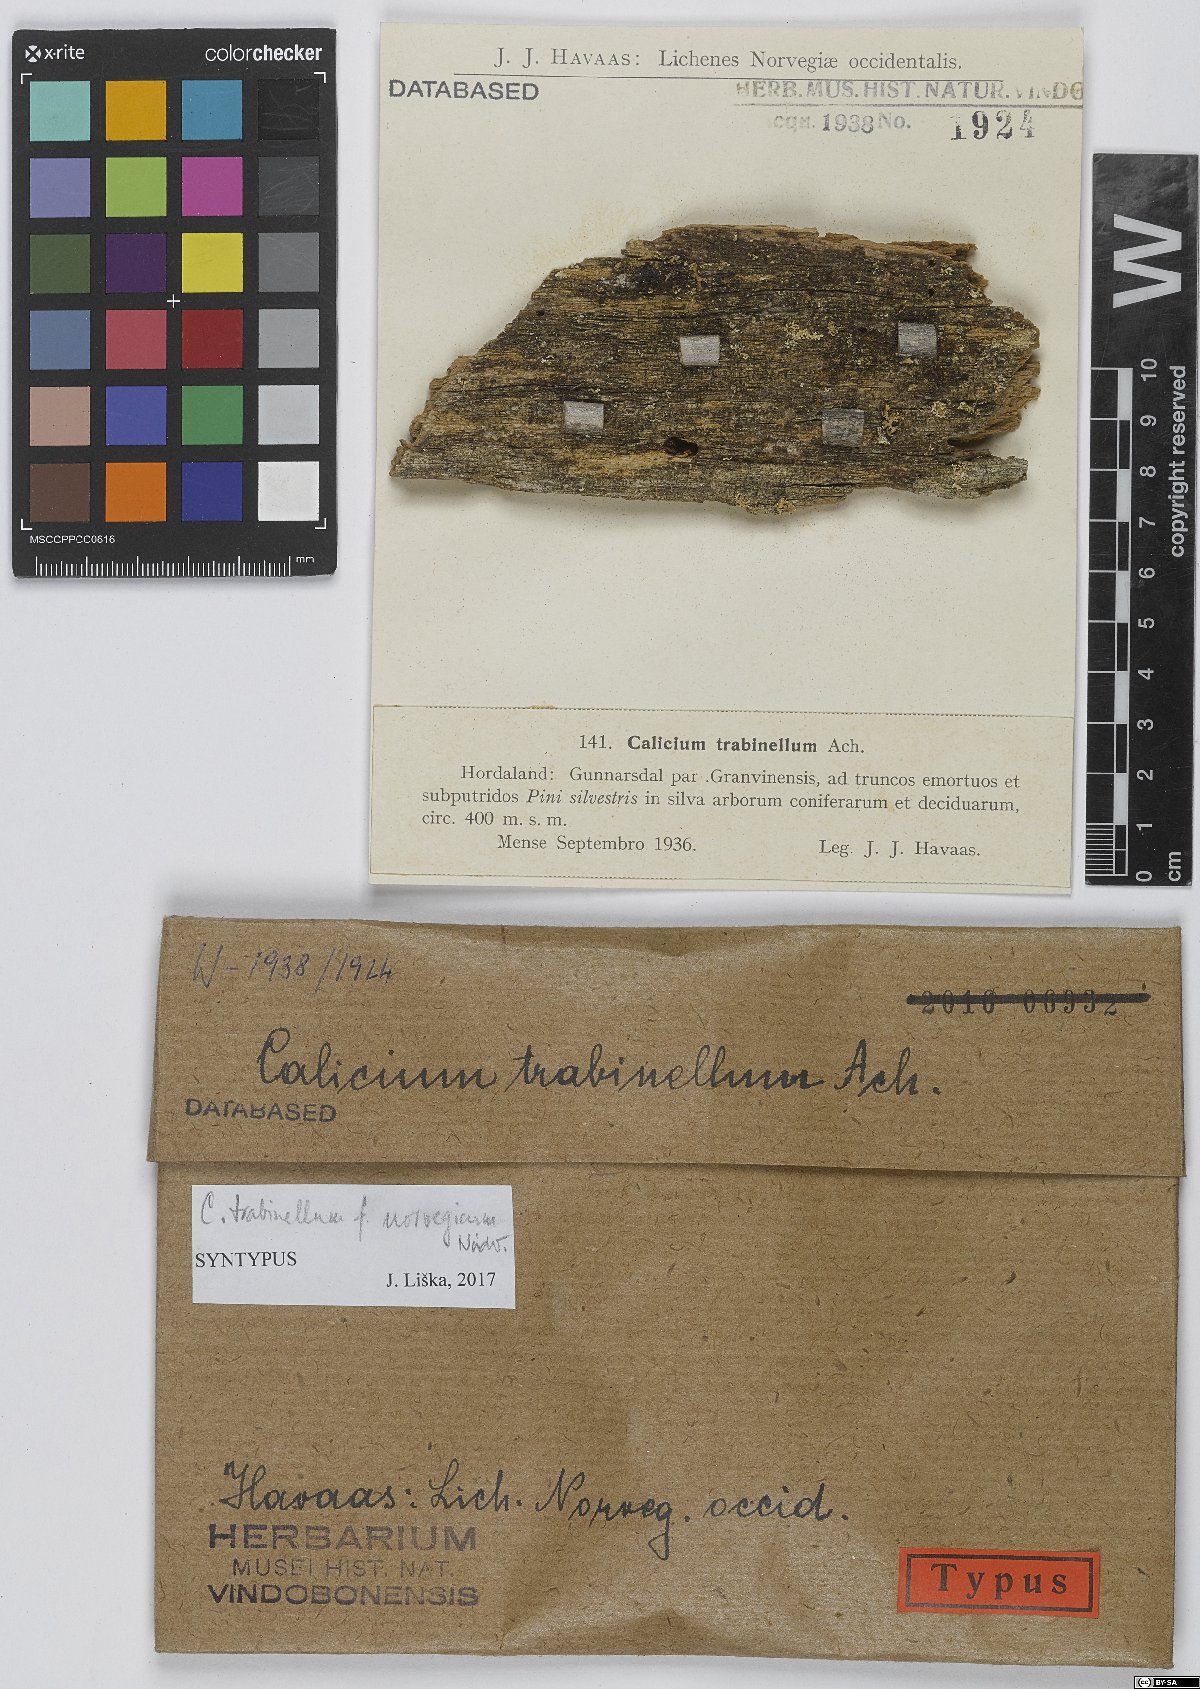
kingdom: Fungi
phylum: Ascomycota
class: Lecanoromycetes
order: Caliciales
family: Caliciaceae
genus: Calicium
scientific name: Calicium trabinellum
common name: Yellow collar stubble lichen
